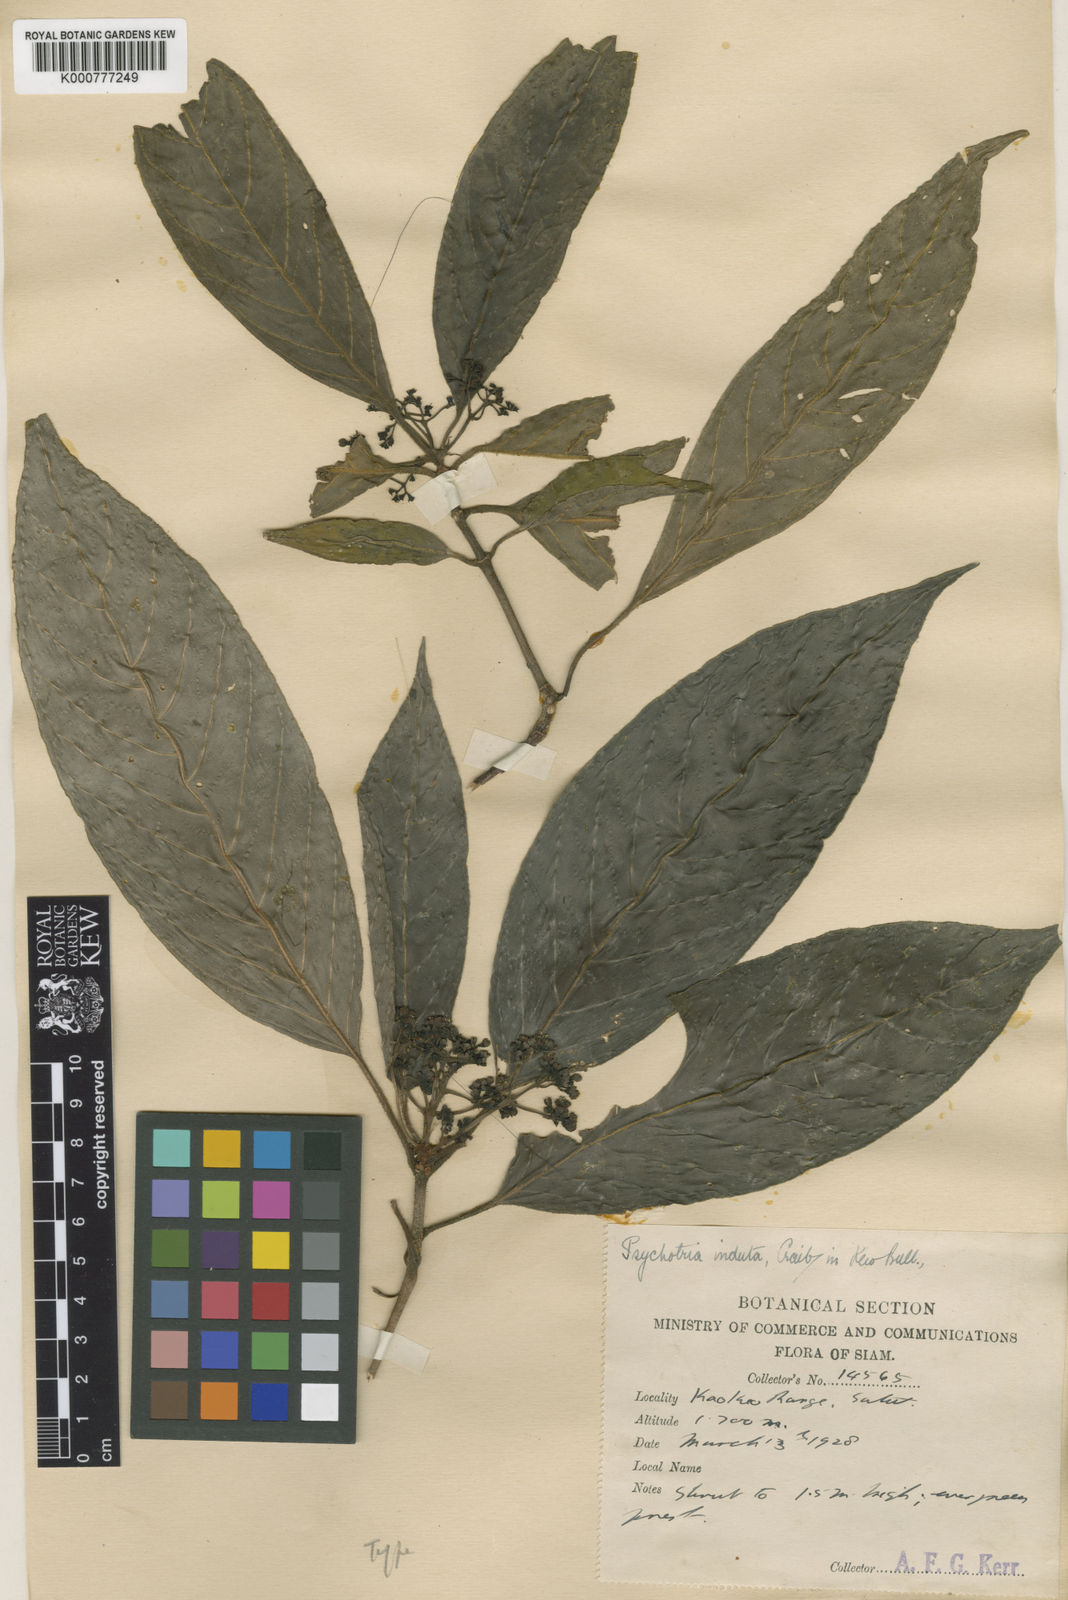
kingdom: Plantae
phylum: Tracheophyta
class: Magnoliopsida
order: Gentianales
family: Rubiaceae
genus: Psychotria
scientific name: Psychotria rudis
